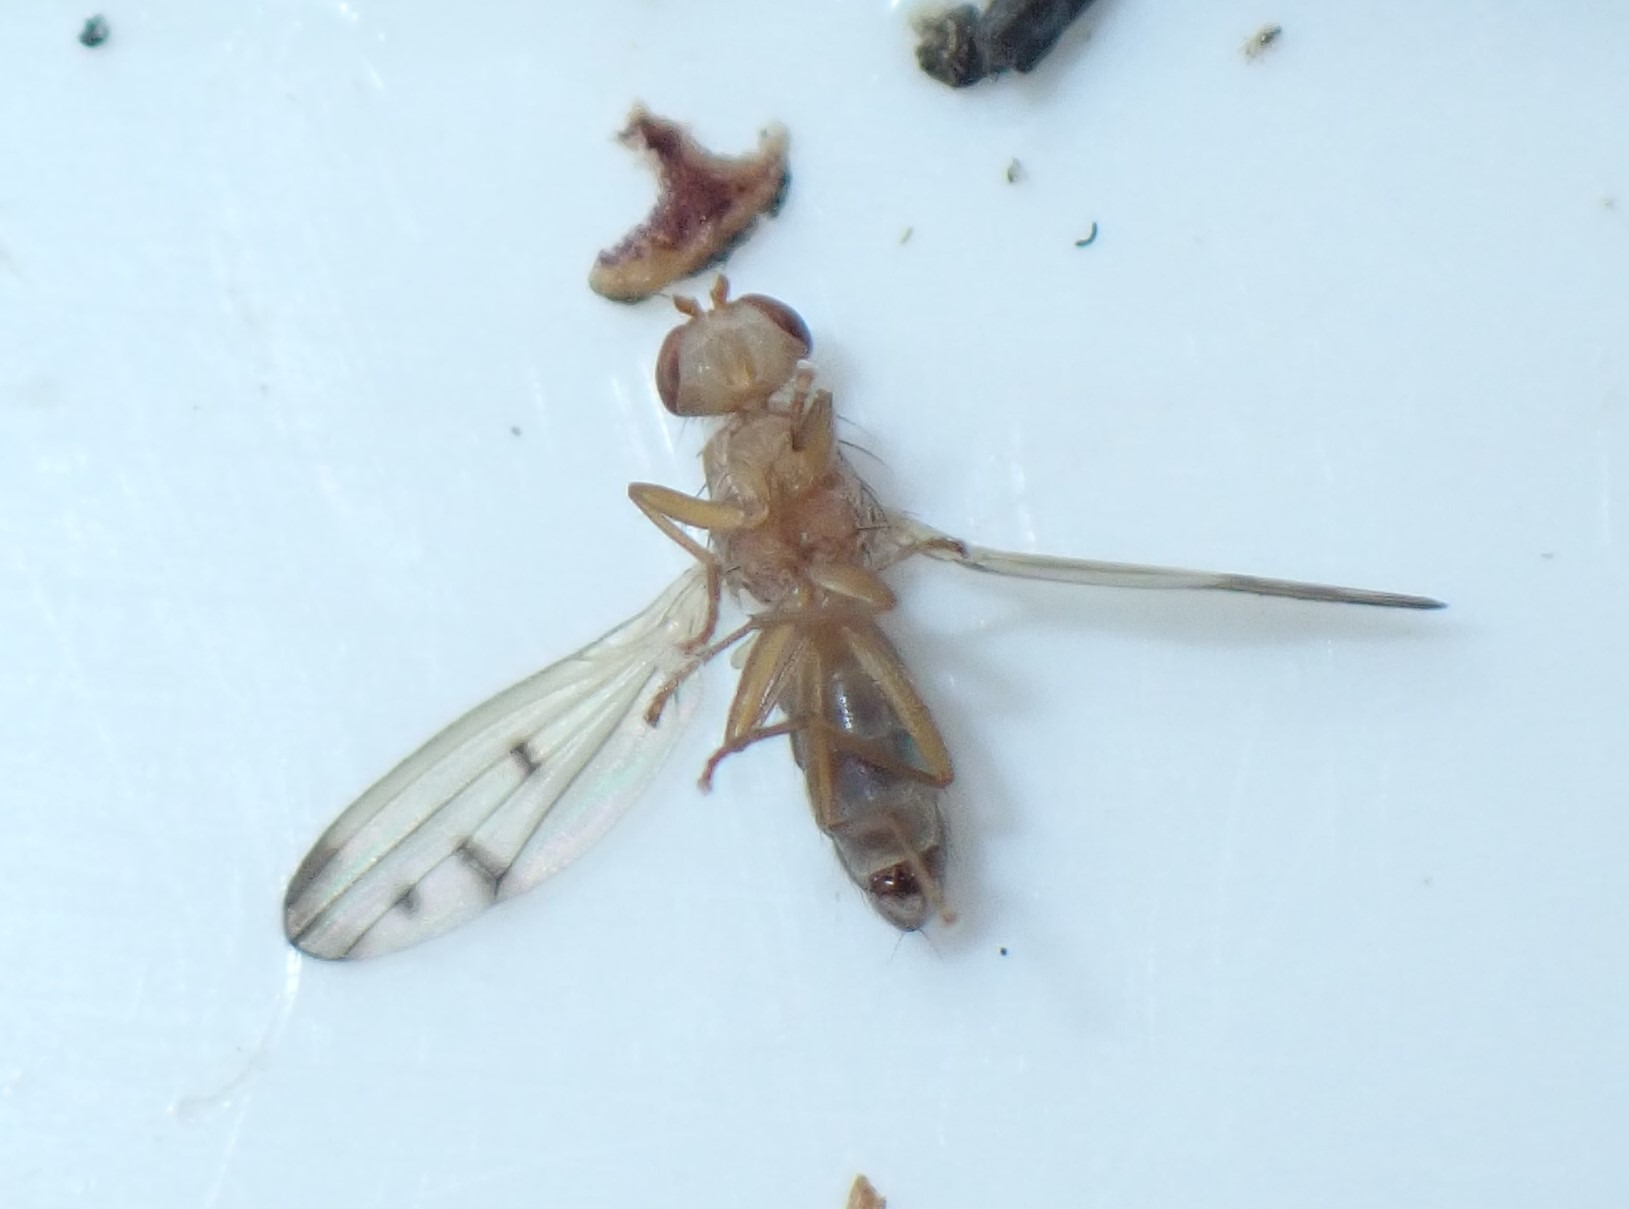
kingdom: Animalia
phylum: Arthropoda
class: Insecta
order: Diptera
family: Opomyzidae
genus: Opomyza
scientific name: Opomyza florum
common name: Gul græsflue
